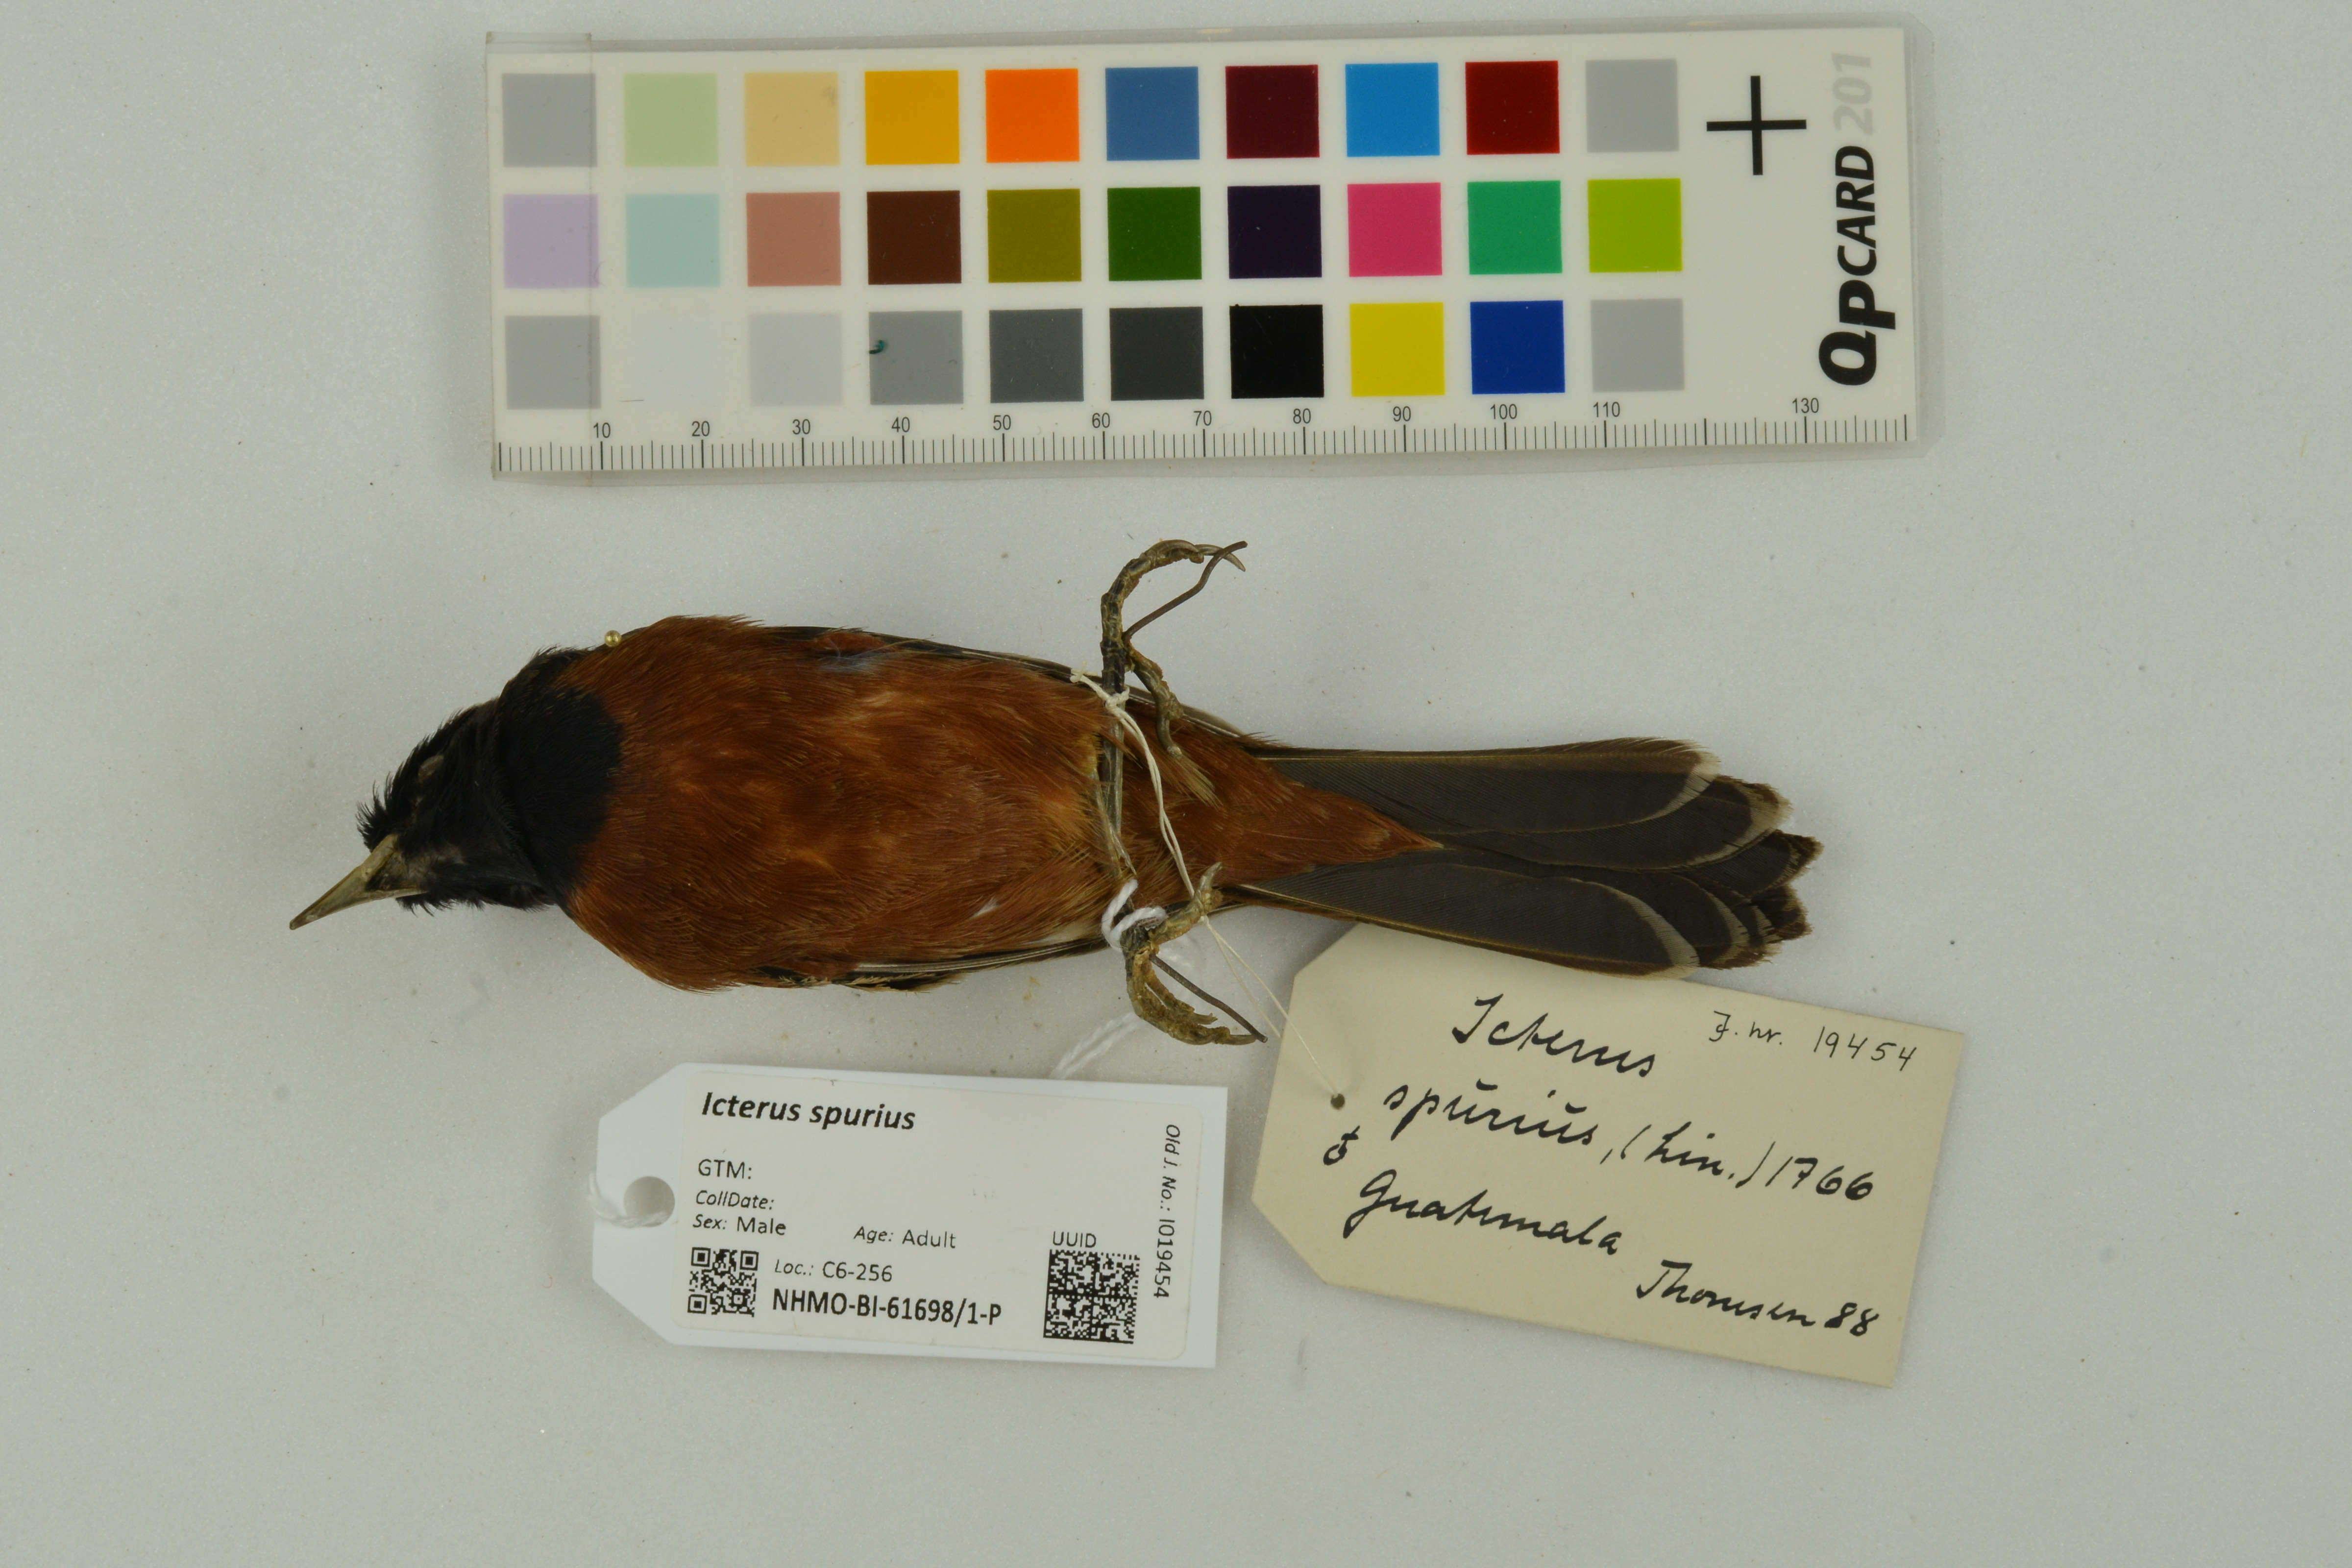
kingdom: Animalia
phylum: Chordata
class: Aves
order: Passeriformes
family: Icteridae
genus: Icterus
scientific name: Icterus spurius
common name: Orchard oriole
